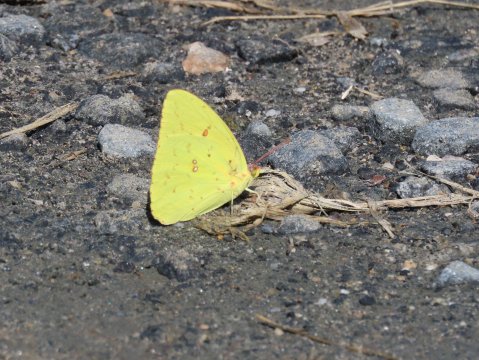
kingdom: Animalia
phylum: Arthropoda
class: Insecta
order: Lepidoptera
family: Pieridae
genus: Phoebis
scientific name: Phoebis sennae
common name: Cloudless Sulphur
